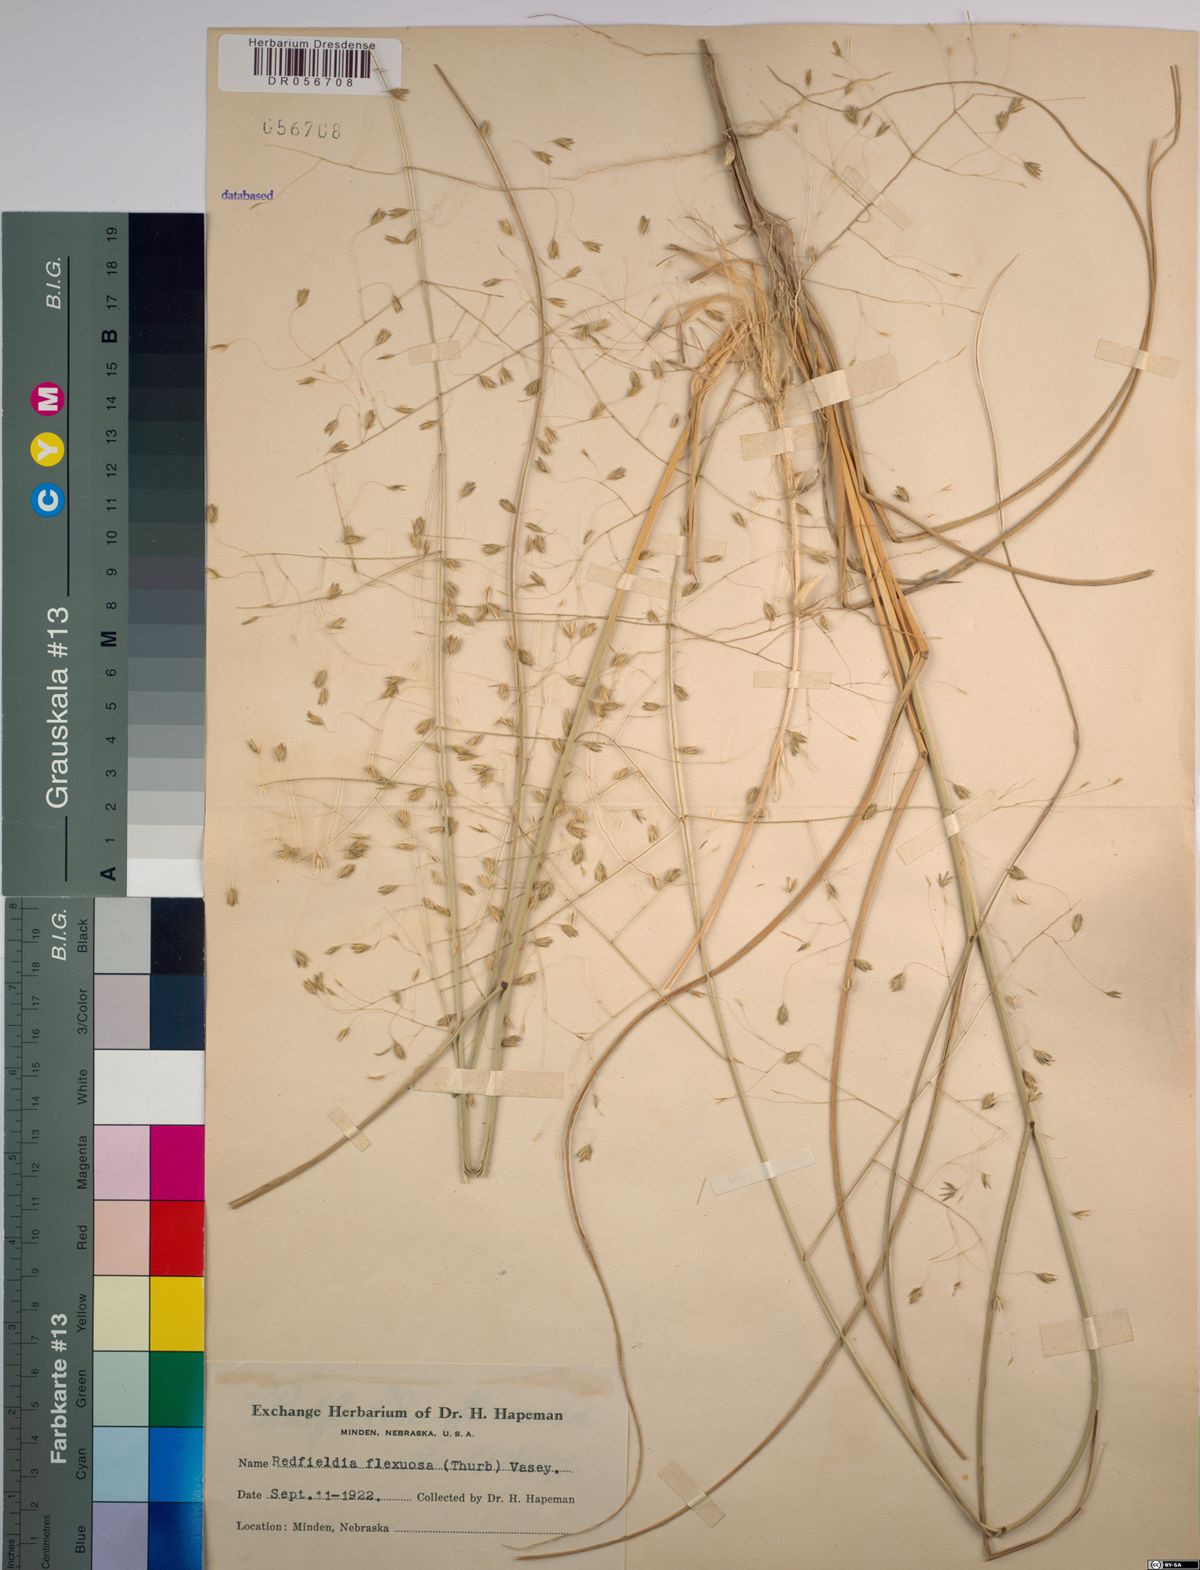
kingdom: Plantae
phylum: Tracheophyta
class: Liliopsida
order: Poales
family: Poaceae
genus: Muhlenbergia
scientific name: Muhlenbergia multiflora
